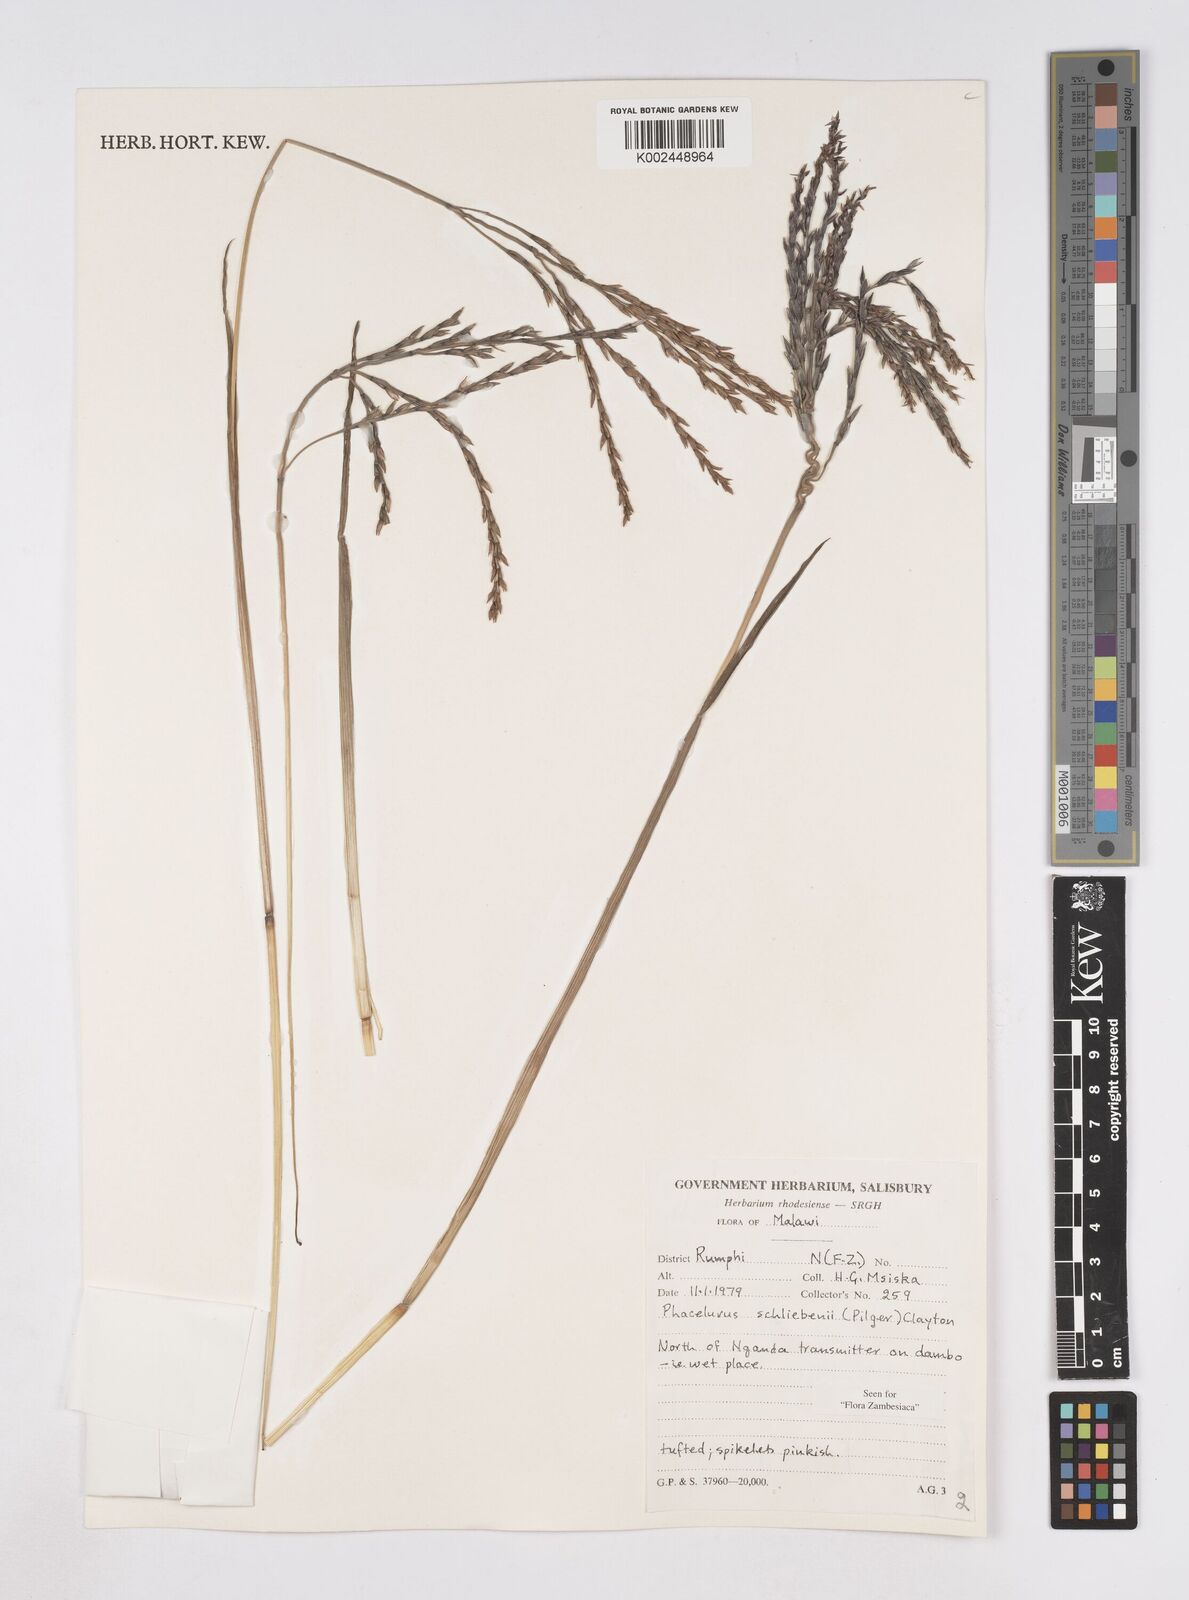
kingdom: Plantae
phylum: Tracheophyta
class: Liliopsida
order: Poales
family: Poaceae
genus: Thyrsia
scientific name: Thyrsia schliebenii
